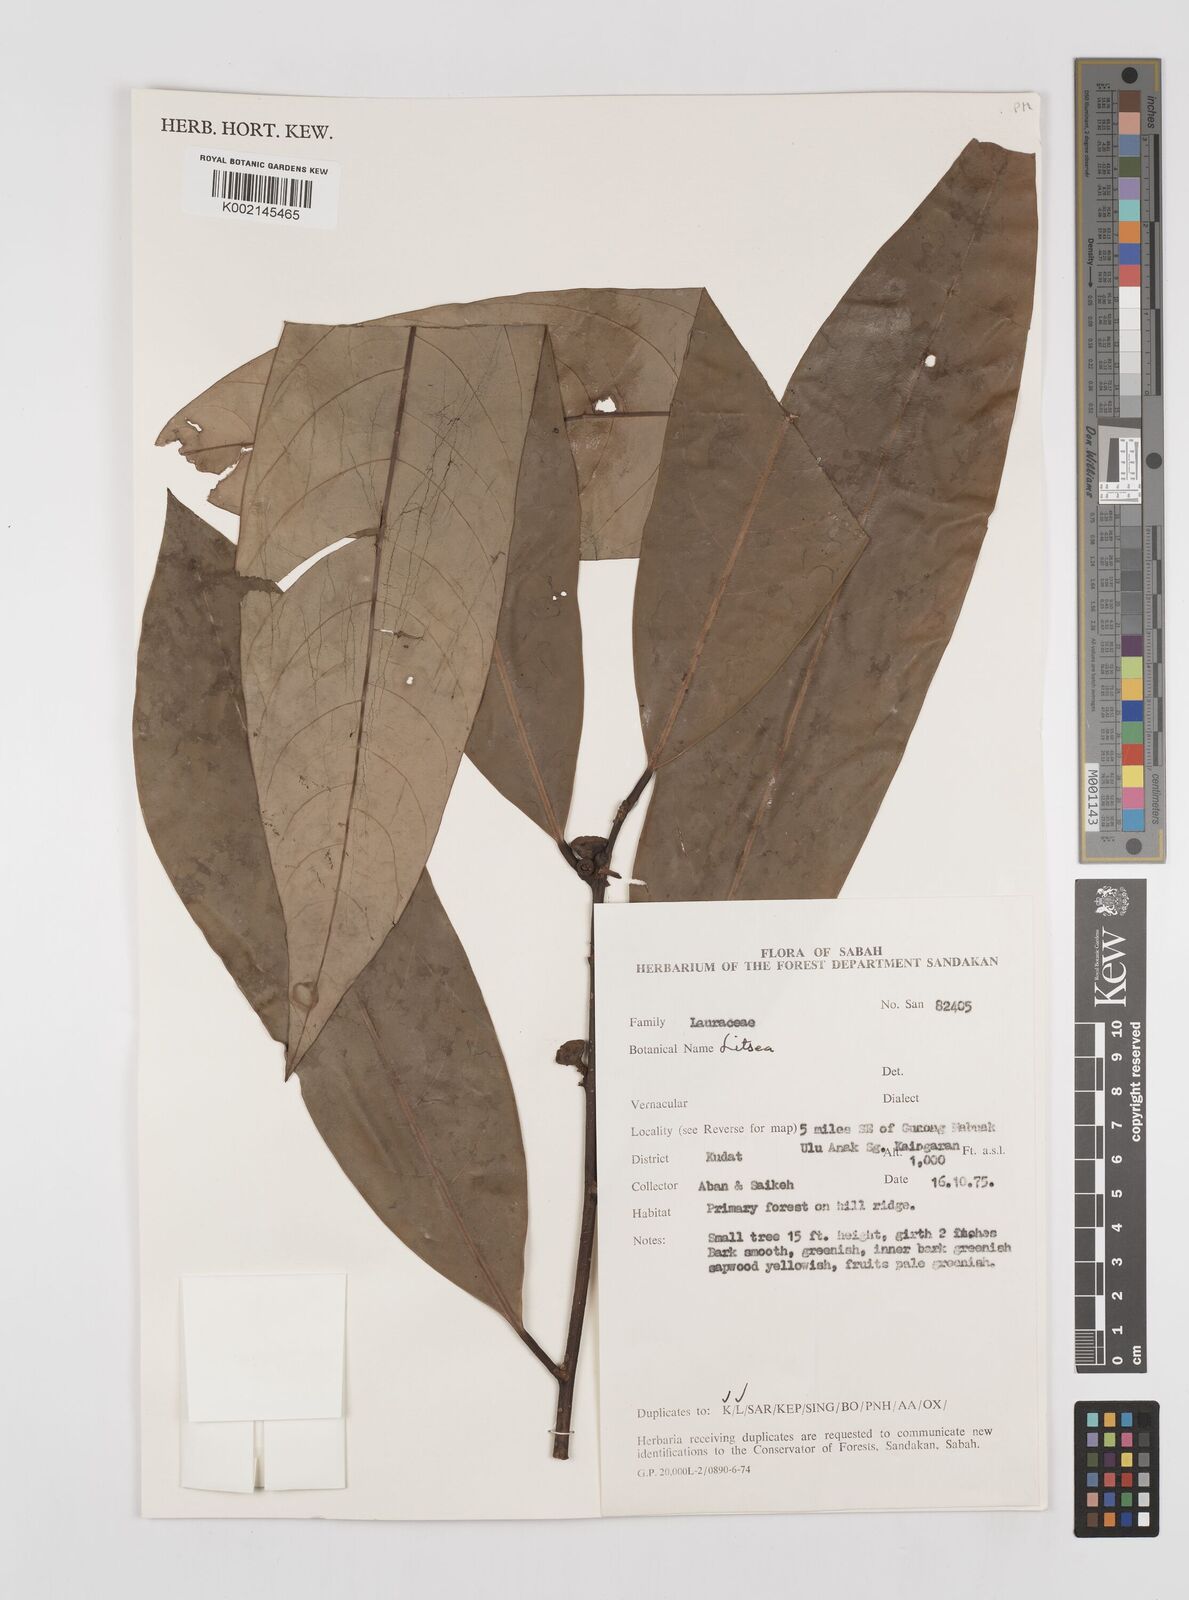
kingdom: Plantae
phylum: Tracheophyta
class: Magnoliopsida
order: Laurales
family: Lauraceae
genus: Litsea
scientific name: Litsea
